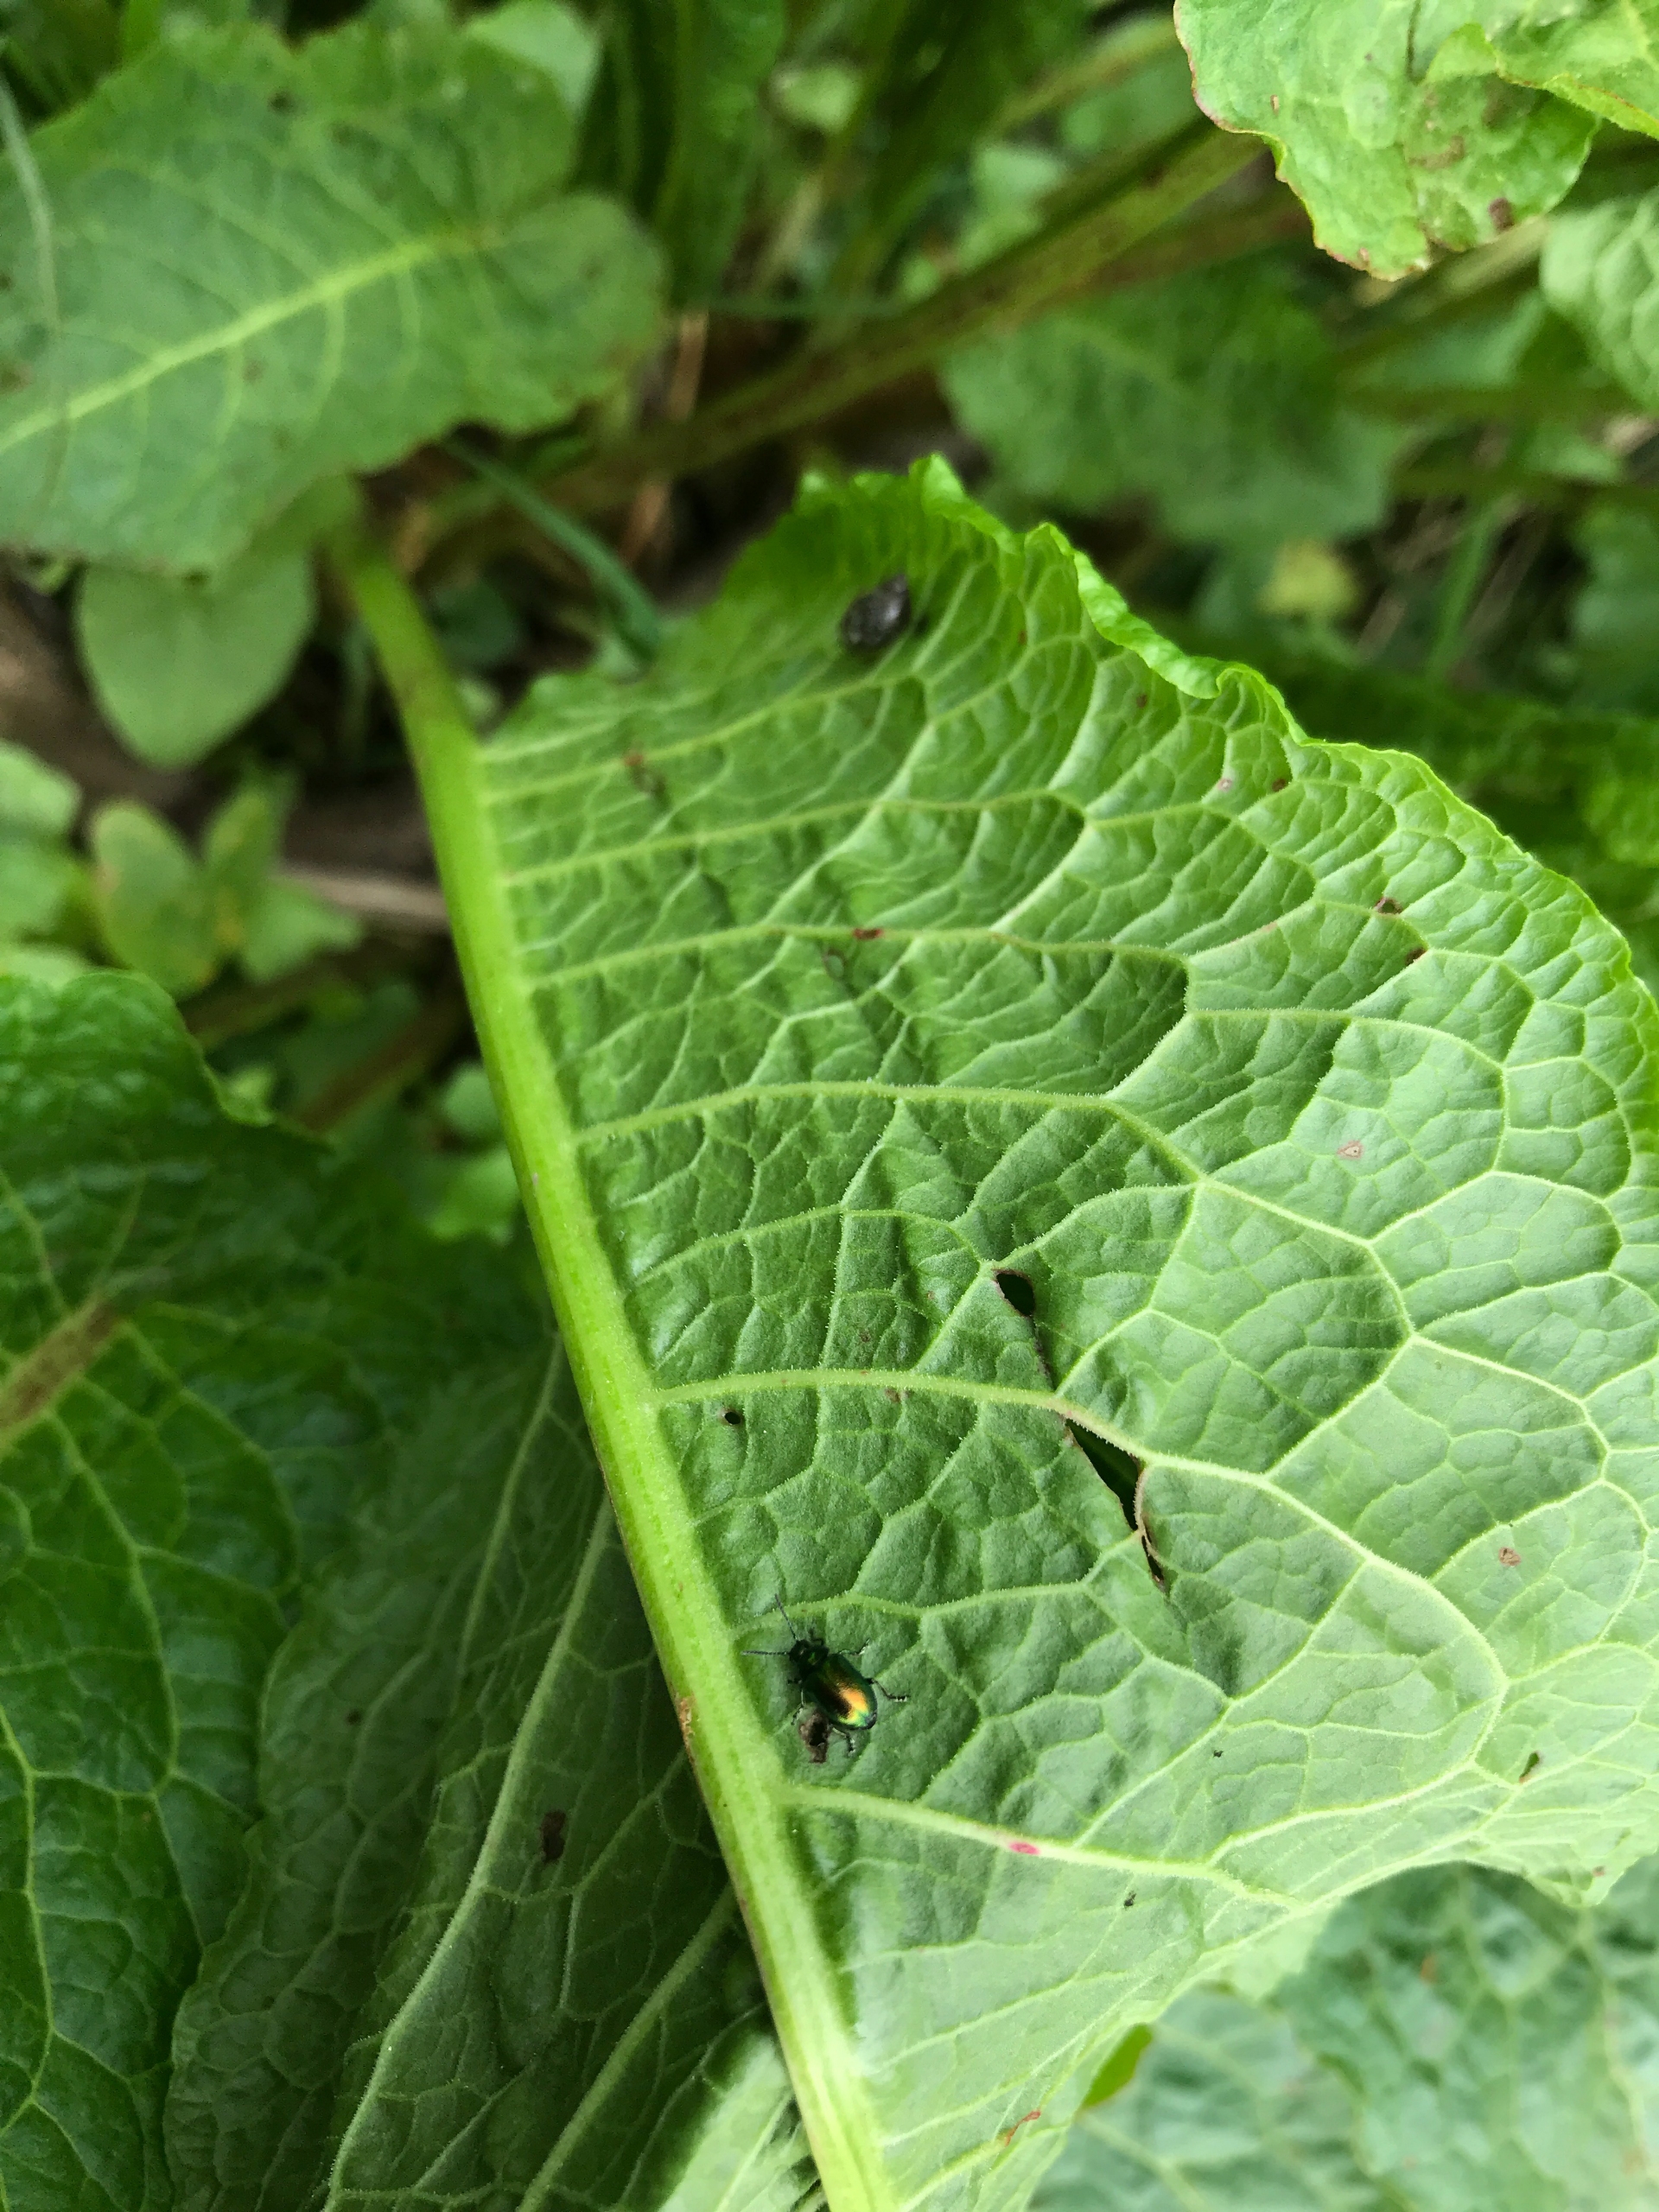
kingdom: Animalia
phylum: Arthropoda
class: Insecta
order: Coleoptera
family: Chrysomelidae
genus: Gastrophysa
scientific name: Gastrophysa viridula
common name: Skræppebladbille
